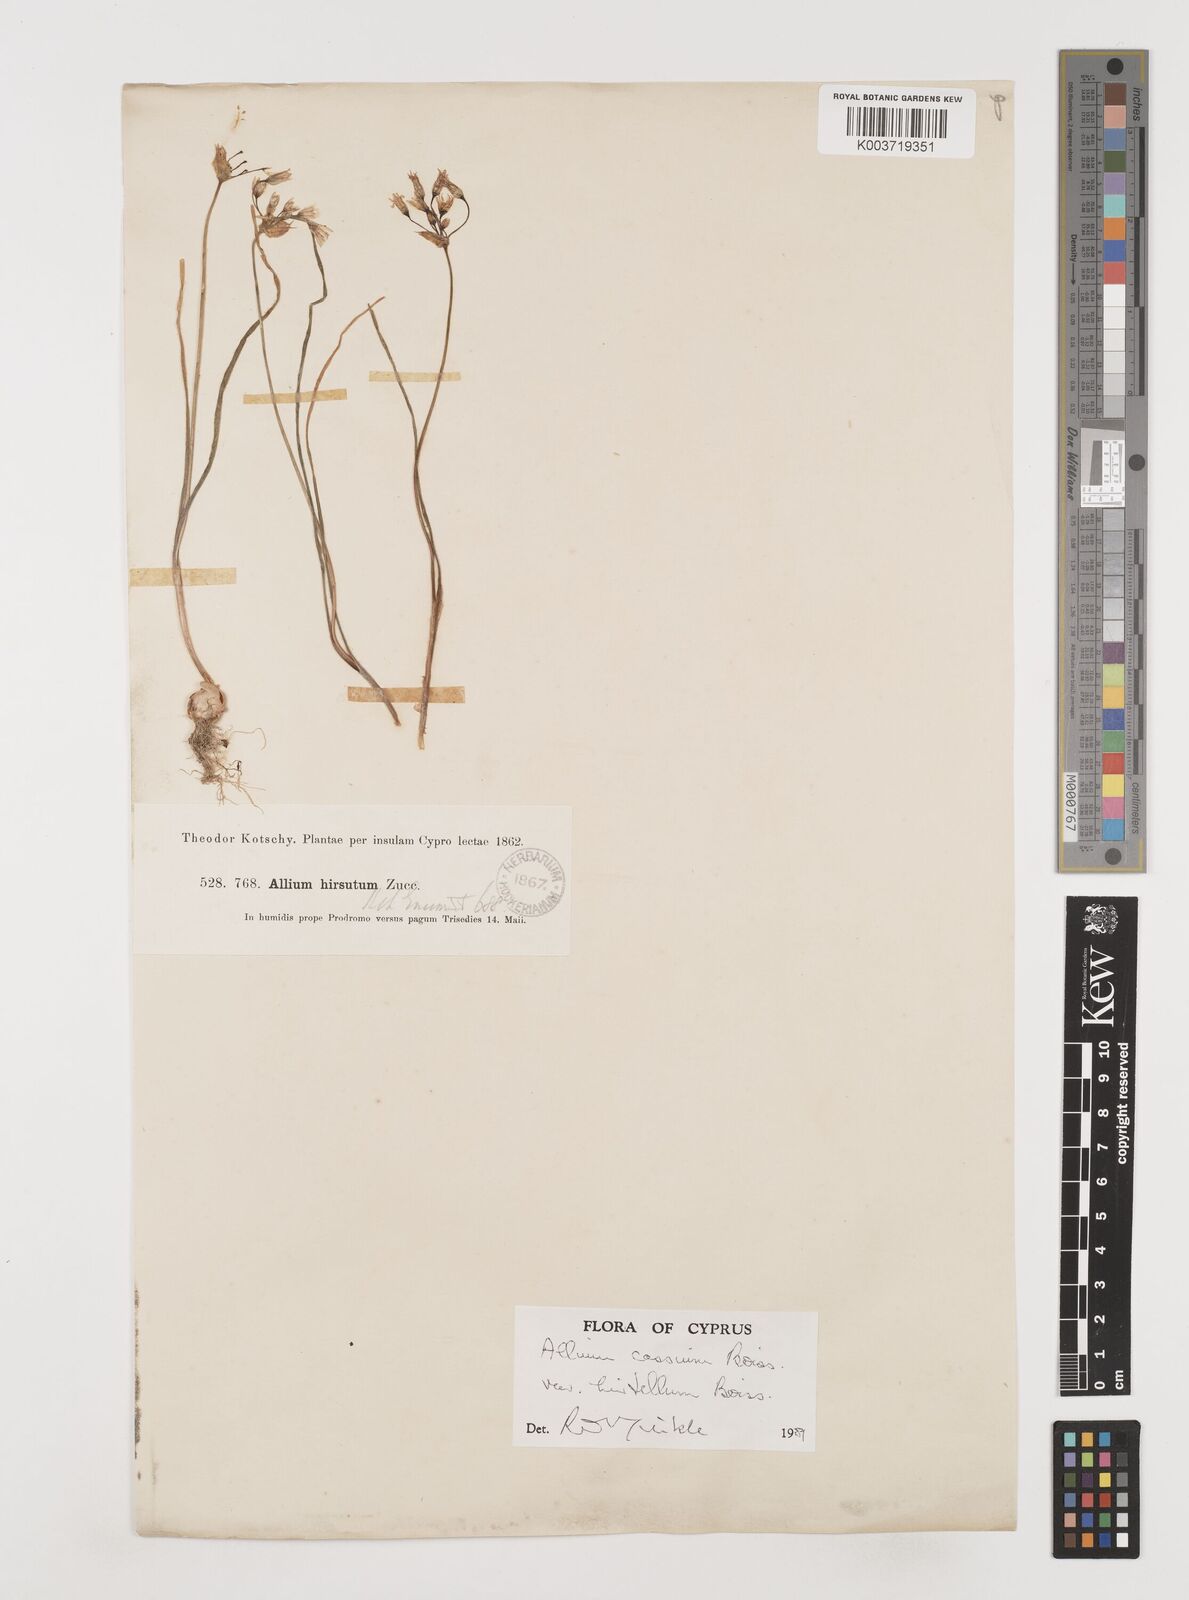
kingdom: Plantae
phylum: Tracheophyta
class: Liliopsida
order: Asparagales
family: Amaryllidaceae
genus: Allium
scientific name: Allium cassium
